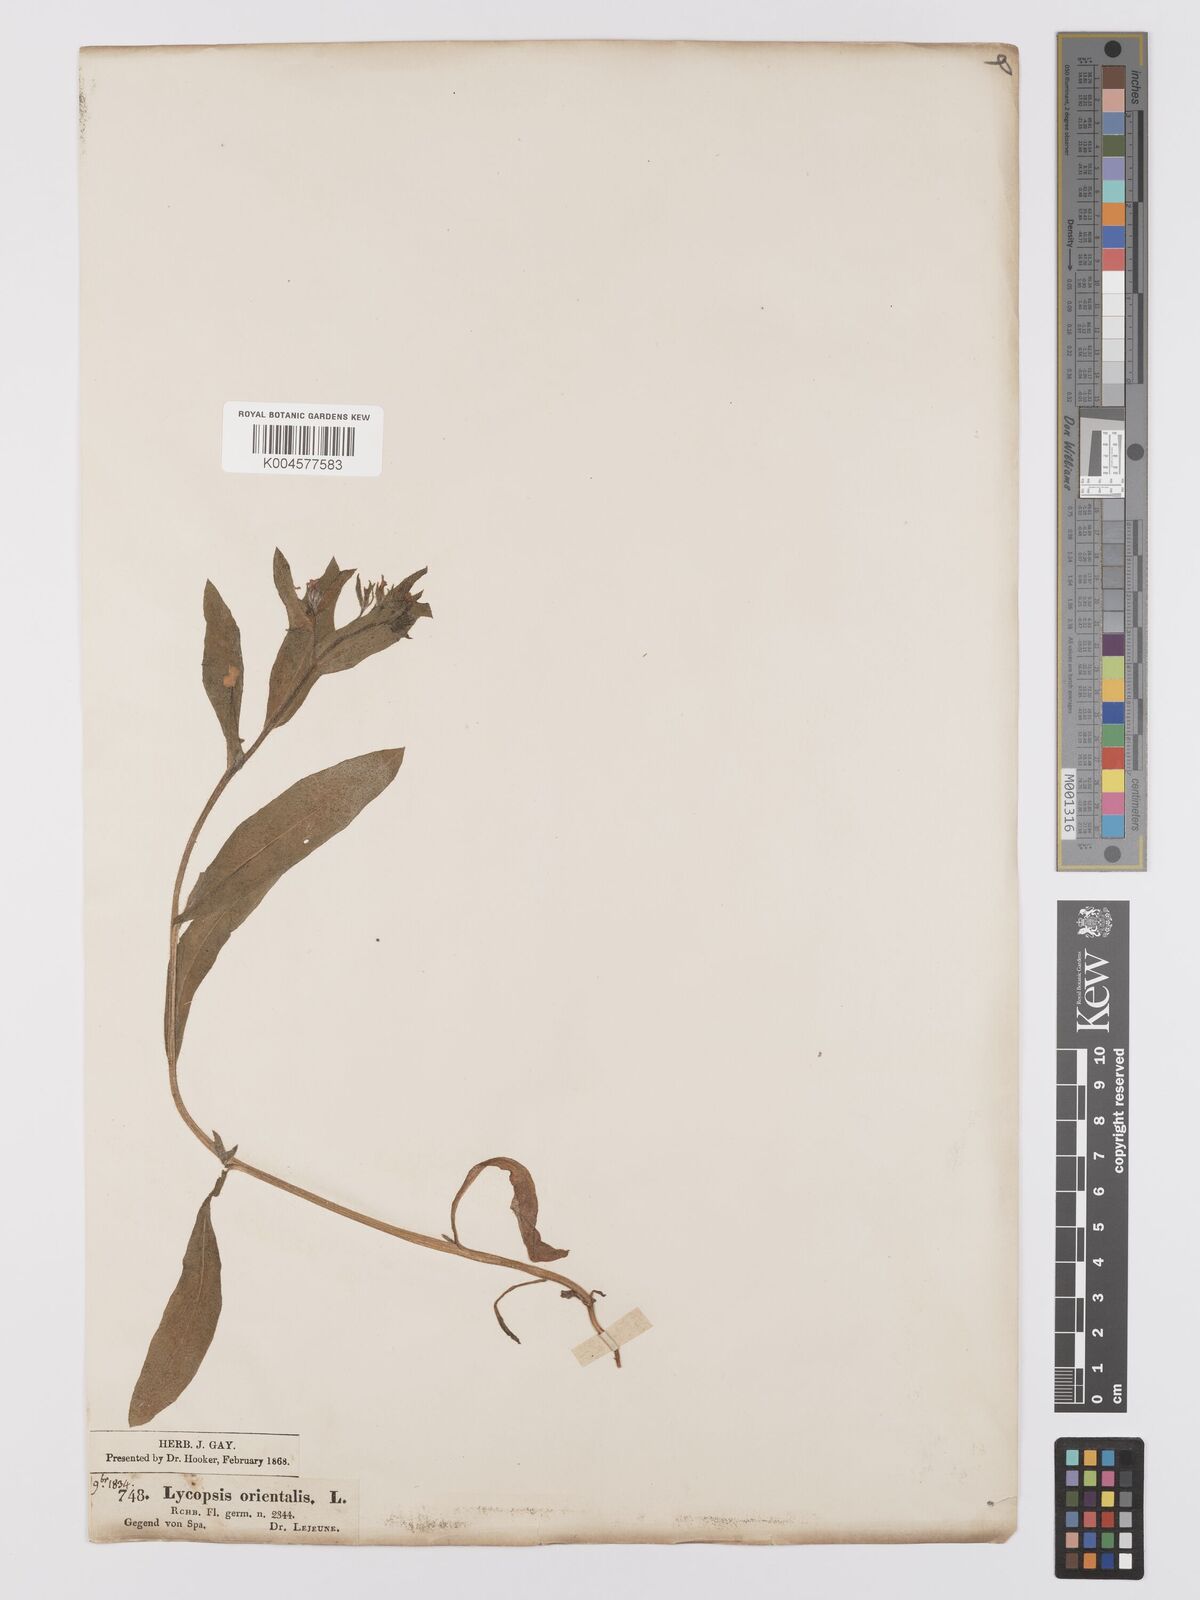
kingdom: Plantae
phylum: Tracheophyta
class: Magnoliopsida
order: Boraginales
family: Boraginaceae
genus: Anchusa
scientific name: Anchusa
